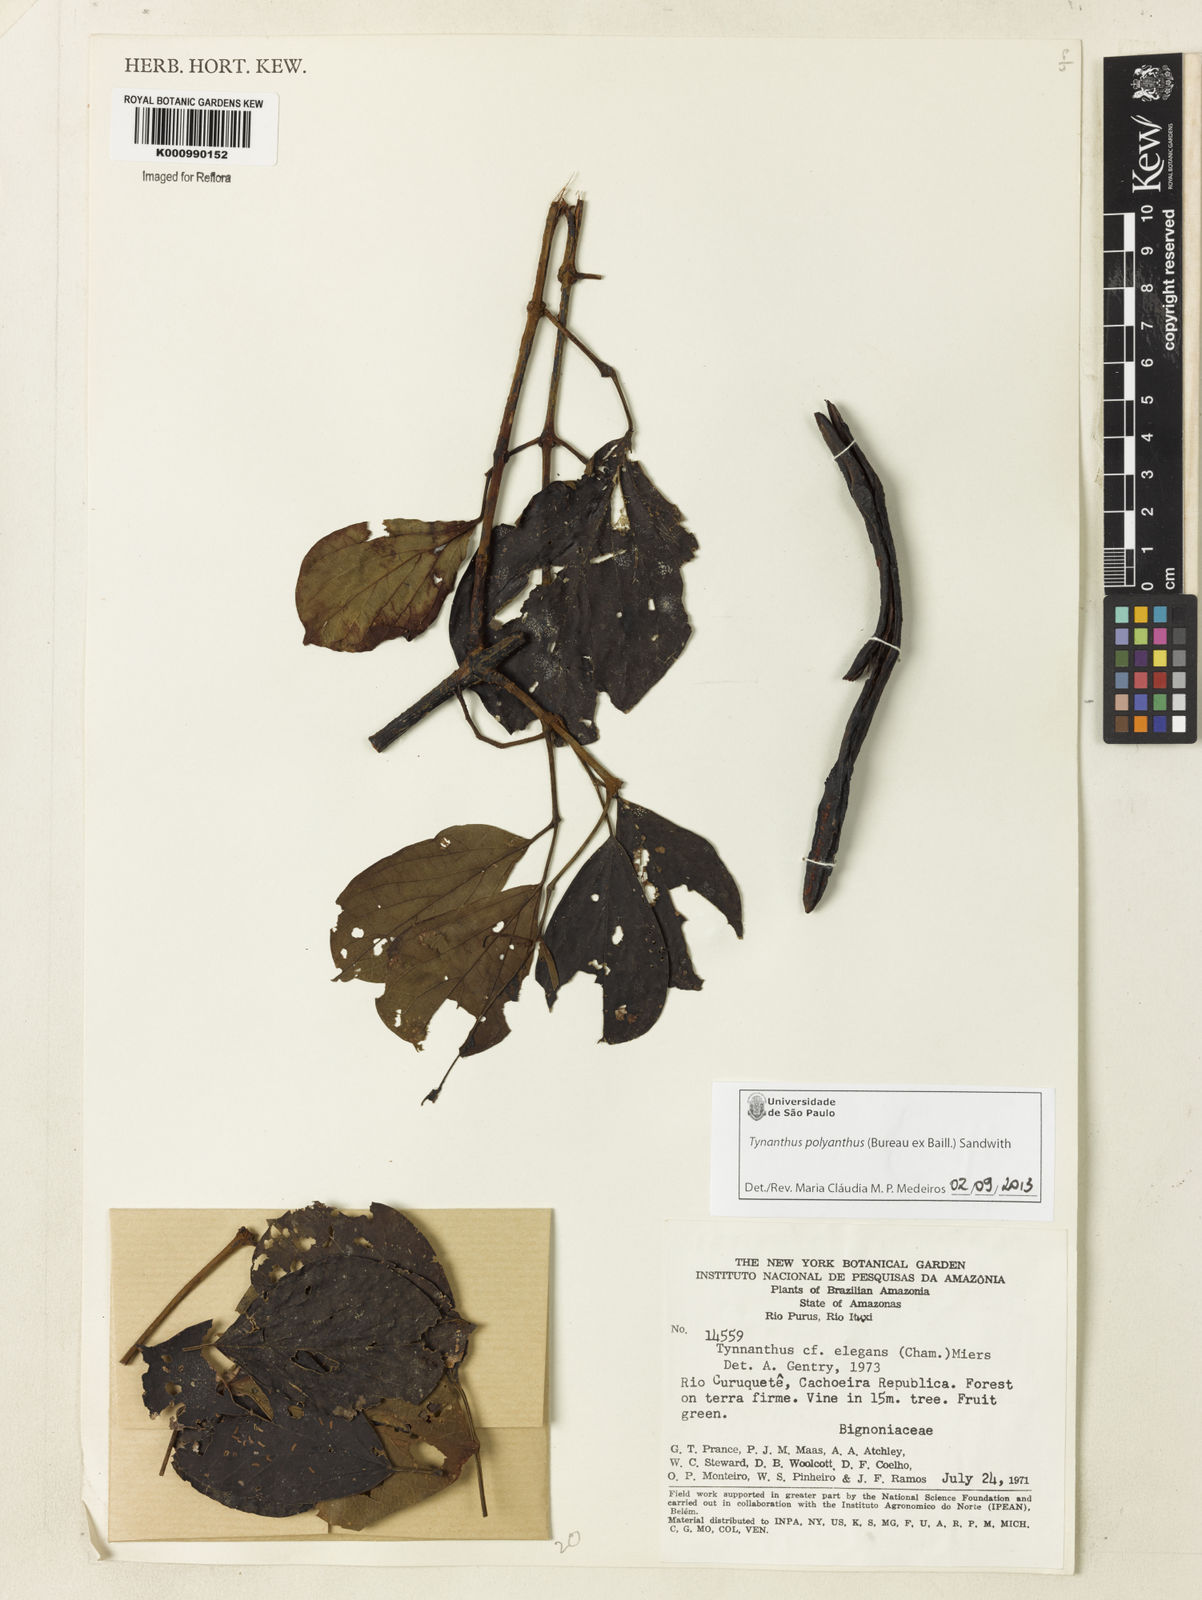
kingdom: Plantae
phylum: Tracheophyta
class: Magnoliopsida
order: Lamiales
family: Bignoniaceae
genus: Tynanthus
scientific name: Tynanthus polyanthus
